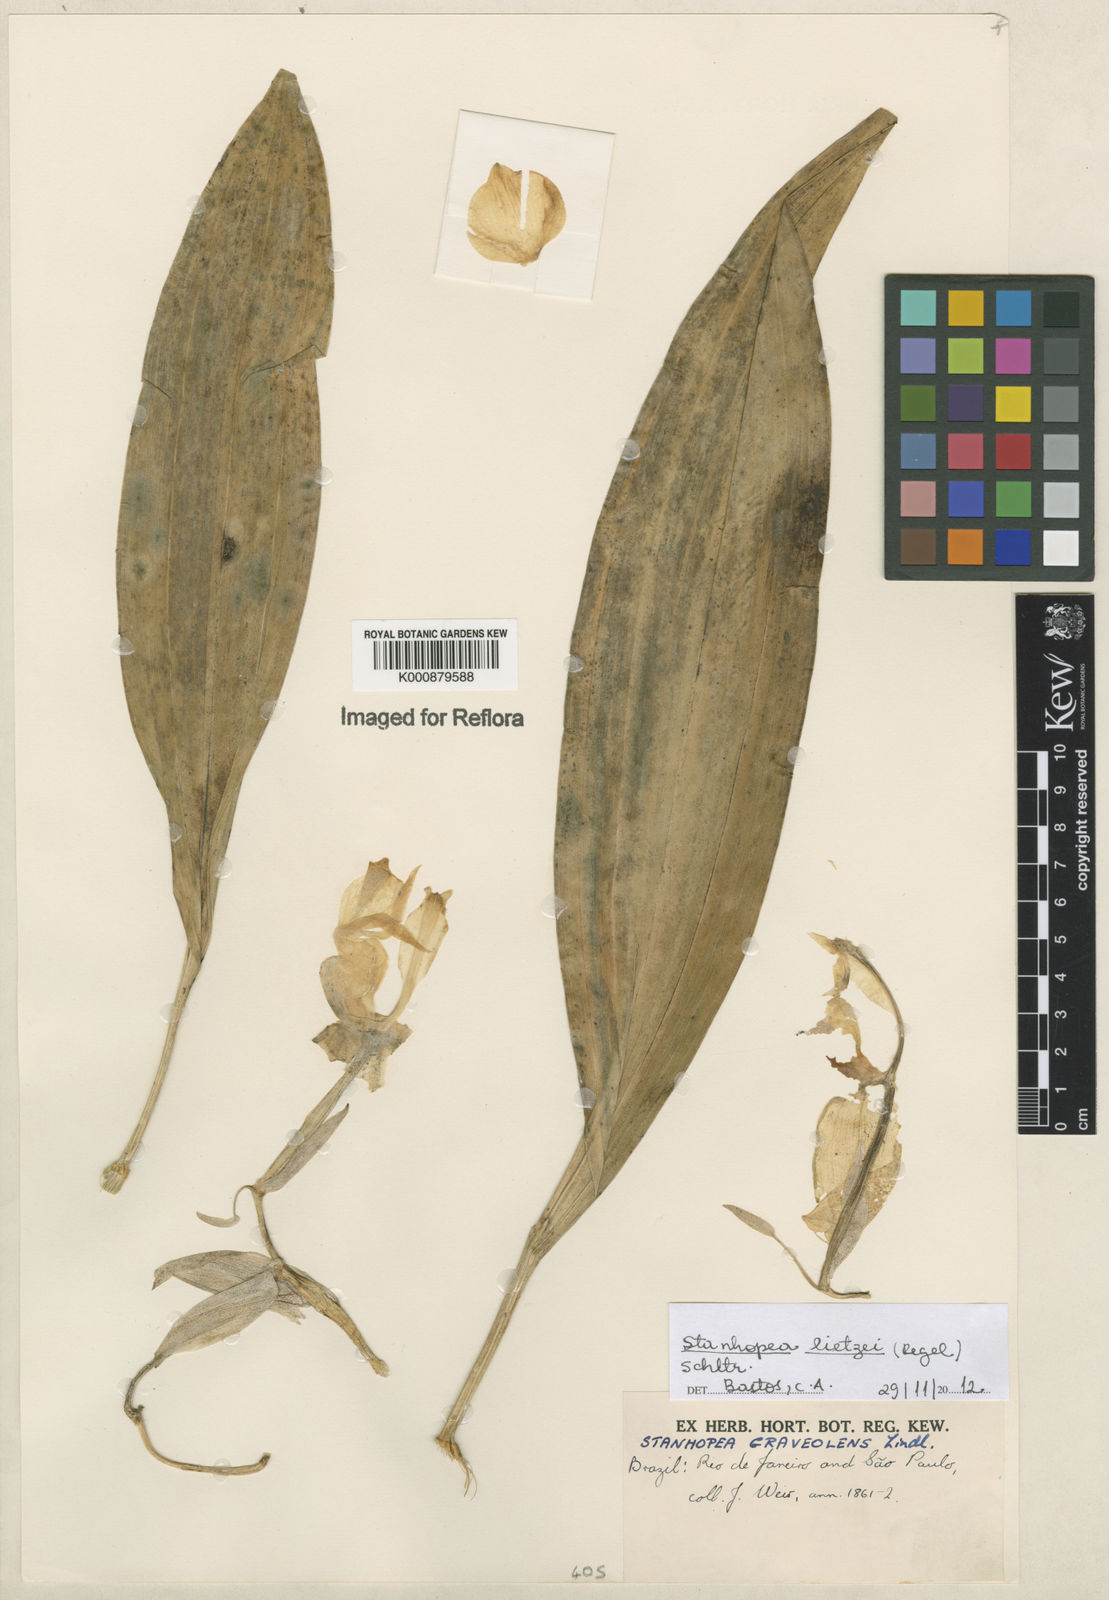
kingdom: Plantae
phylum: Tracheophyta
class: Liliopsida
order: Asparagales
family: Orchidaceae
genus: Stanhopea
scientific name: Stanhopea lietzei
